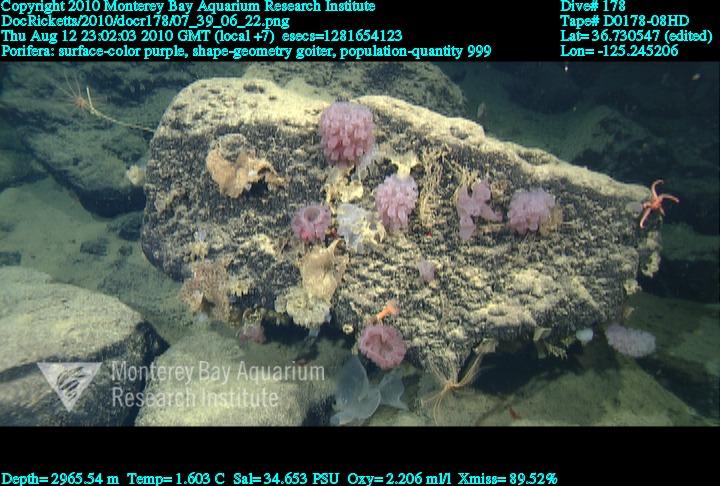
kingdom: Animalia
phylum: Porifera
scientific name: Porifera
